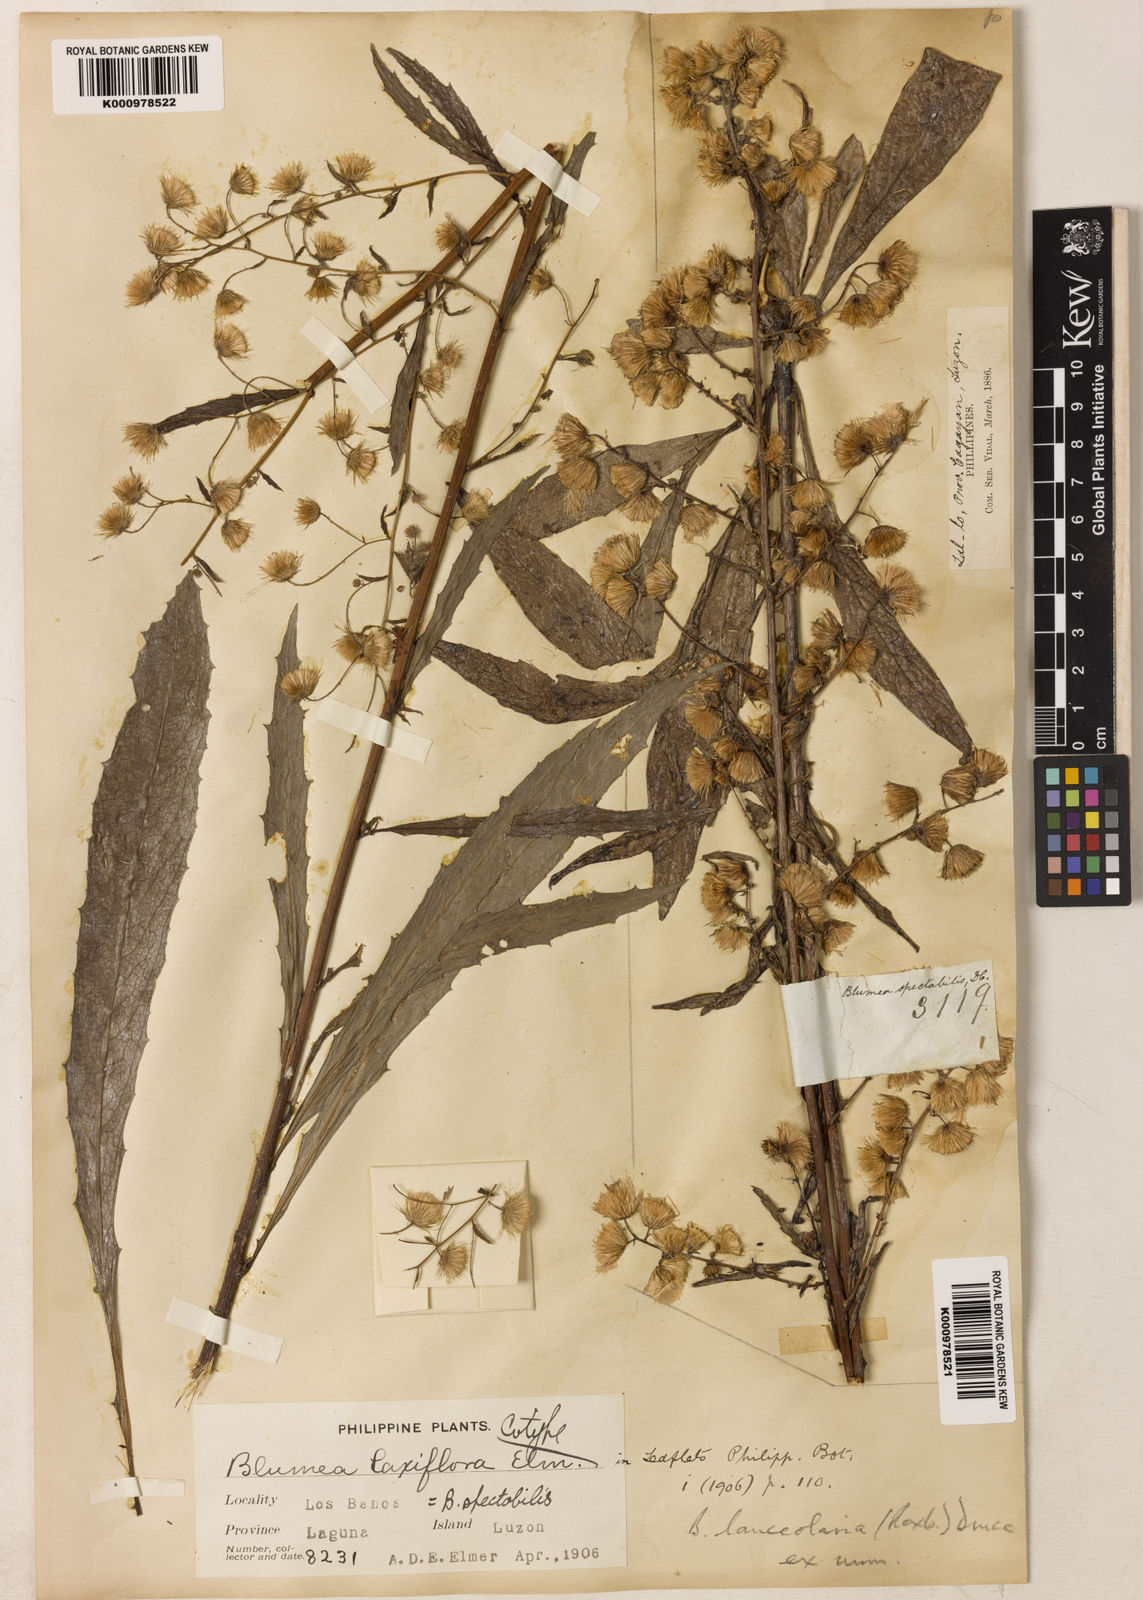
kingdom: Plantae
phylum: Tracheophyta
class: Magnoliopsida
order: Asterales
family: Asteraceae
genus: Blumea
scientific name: Blumea lanceolaria
